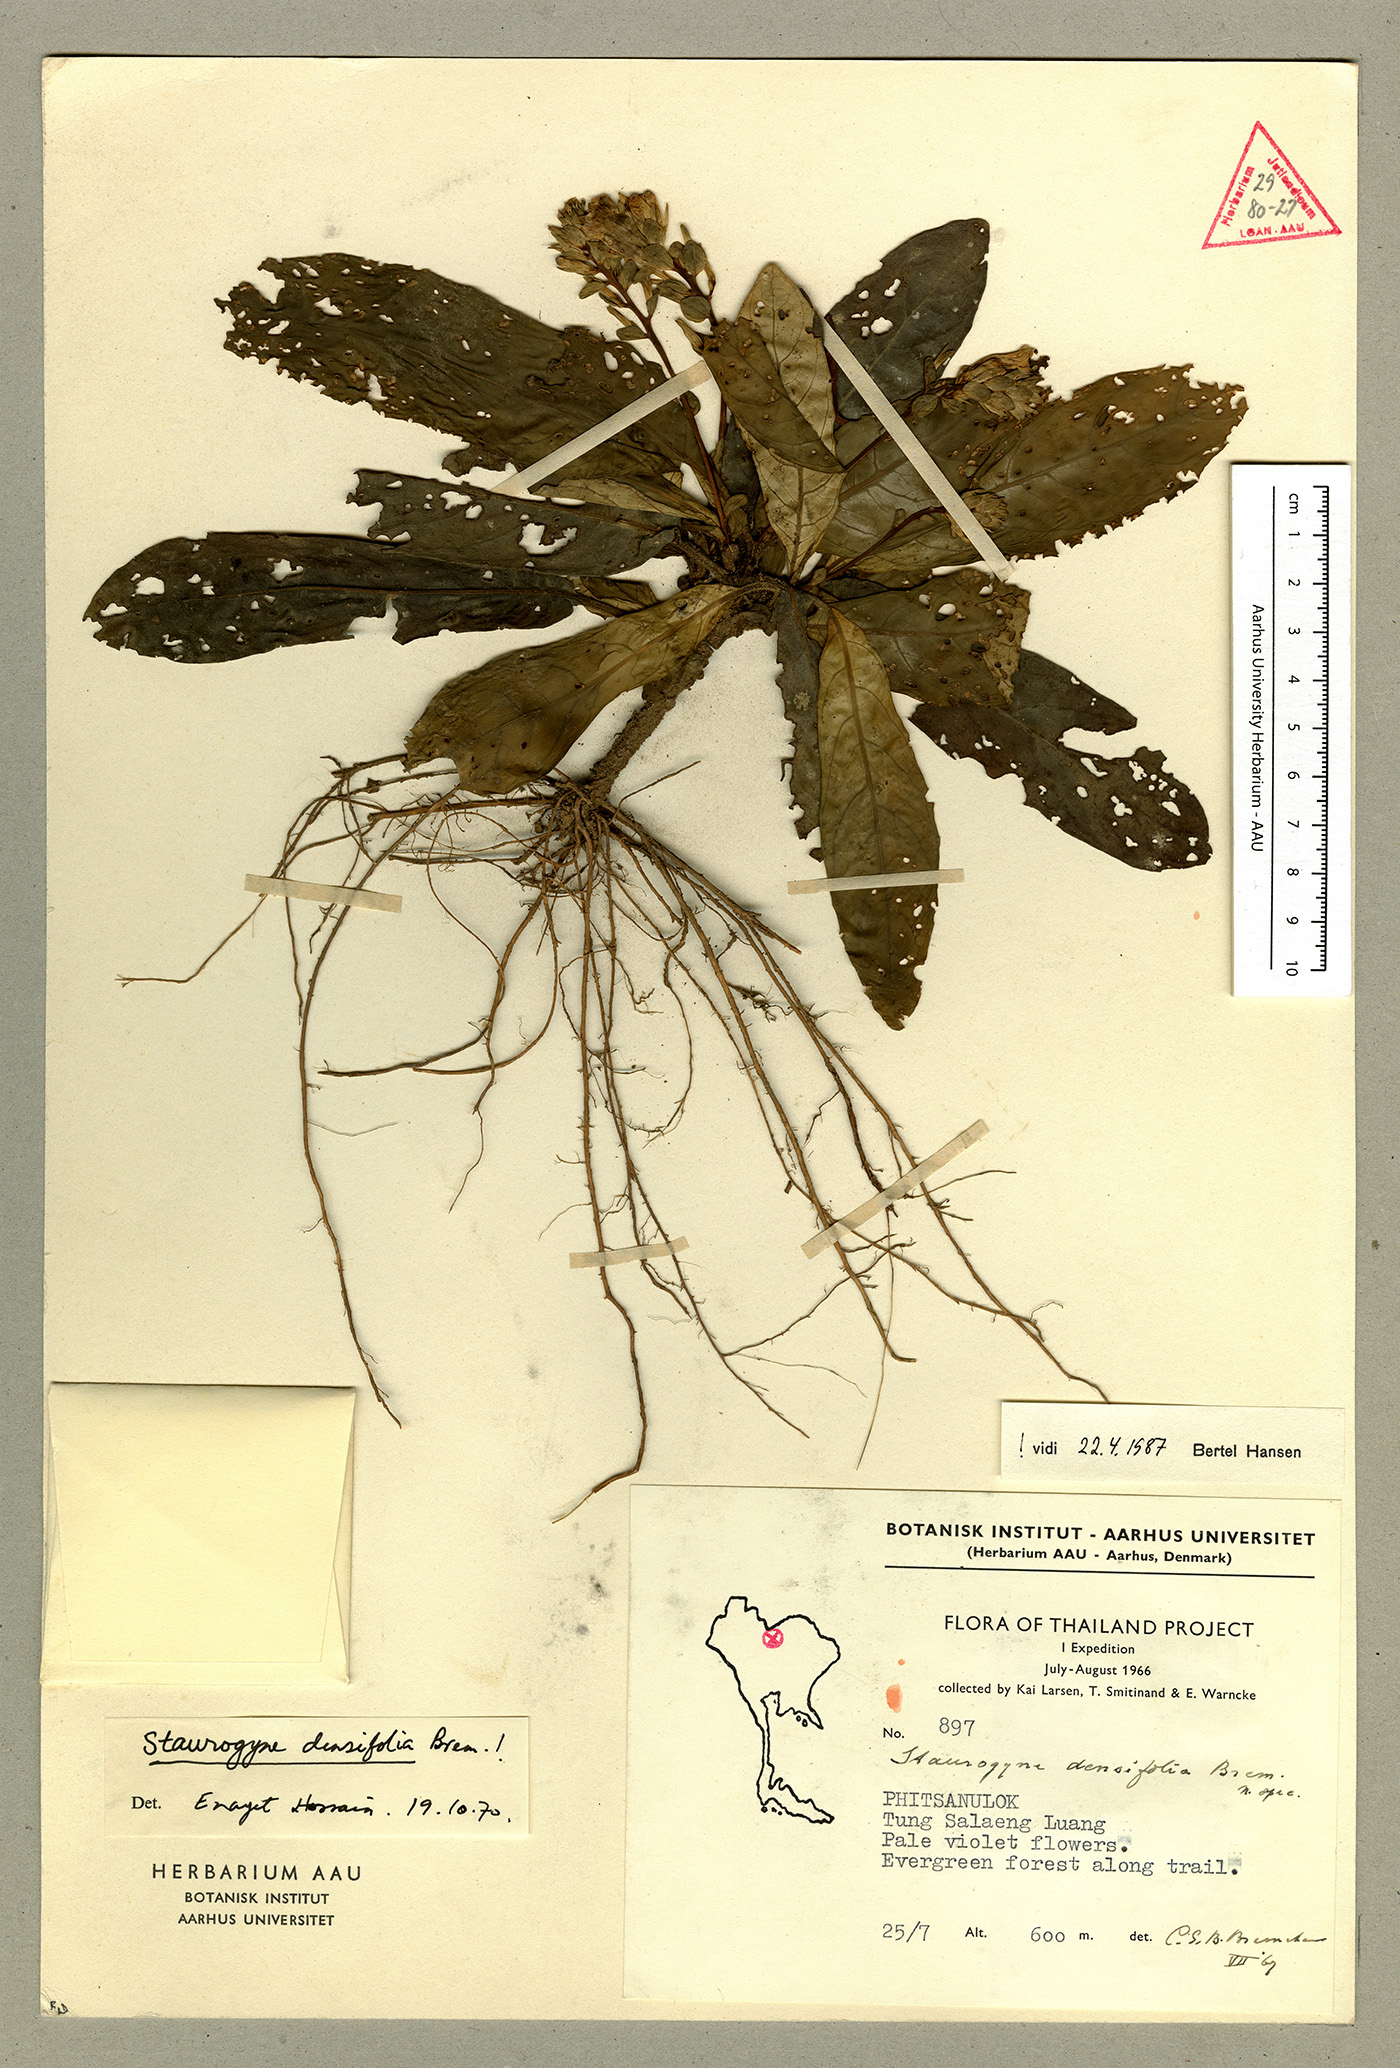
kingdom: Plantae
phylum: Tracheophyta
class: Magnoliopsida
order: Lamiales
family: Acanthaceae
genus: Staurogyne
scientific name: Staurogyne densifolia
